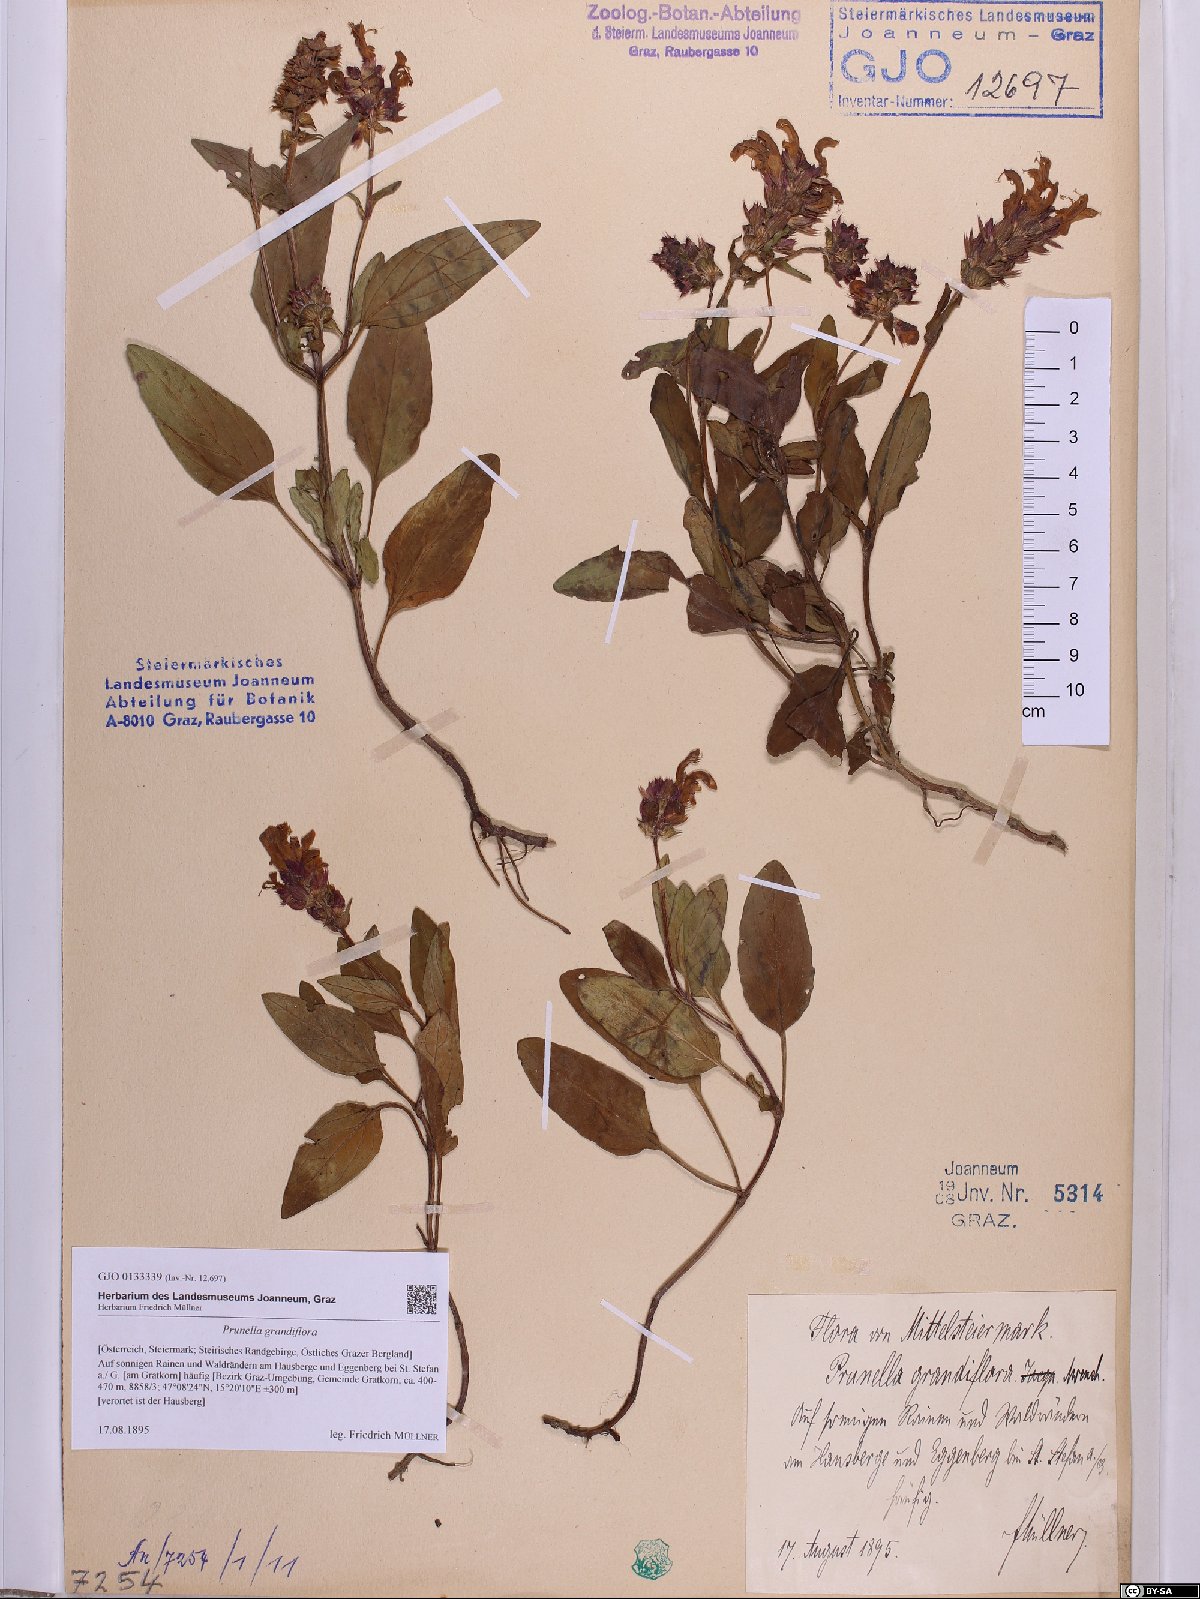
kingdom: Plantae
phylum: Tracheophyta
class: Magnoliopsida
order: Lamiales
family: Lamiaceae
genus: Prunella
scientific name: Prunella grandiflora
